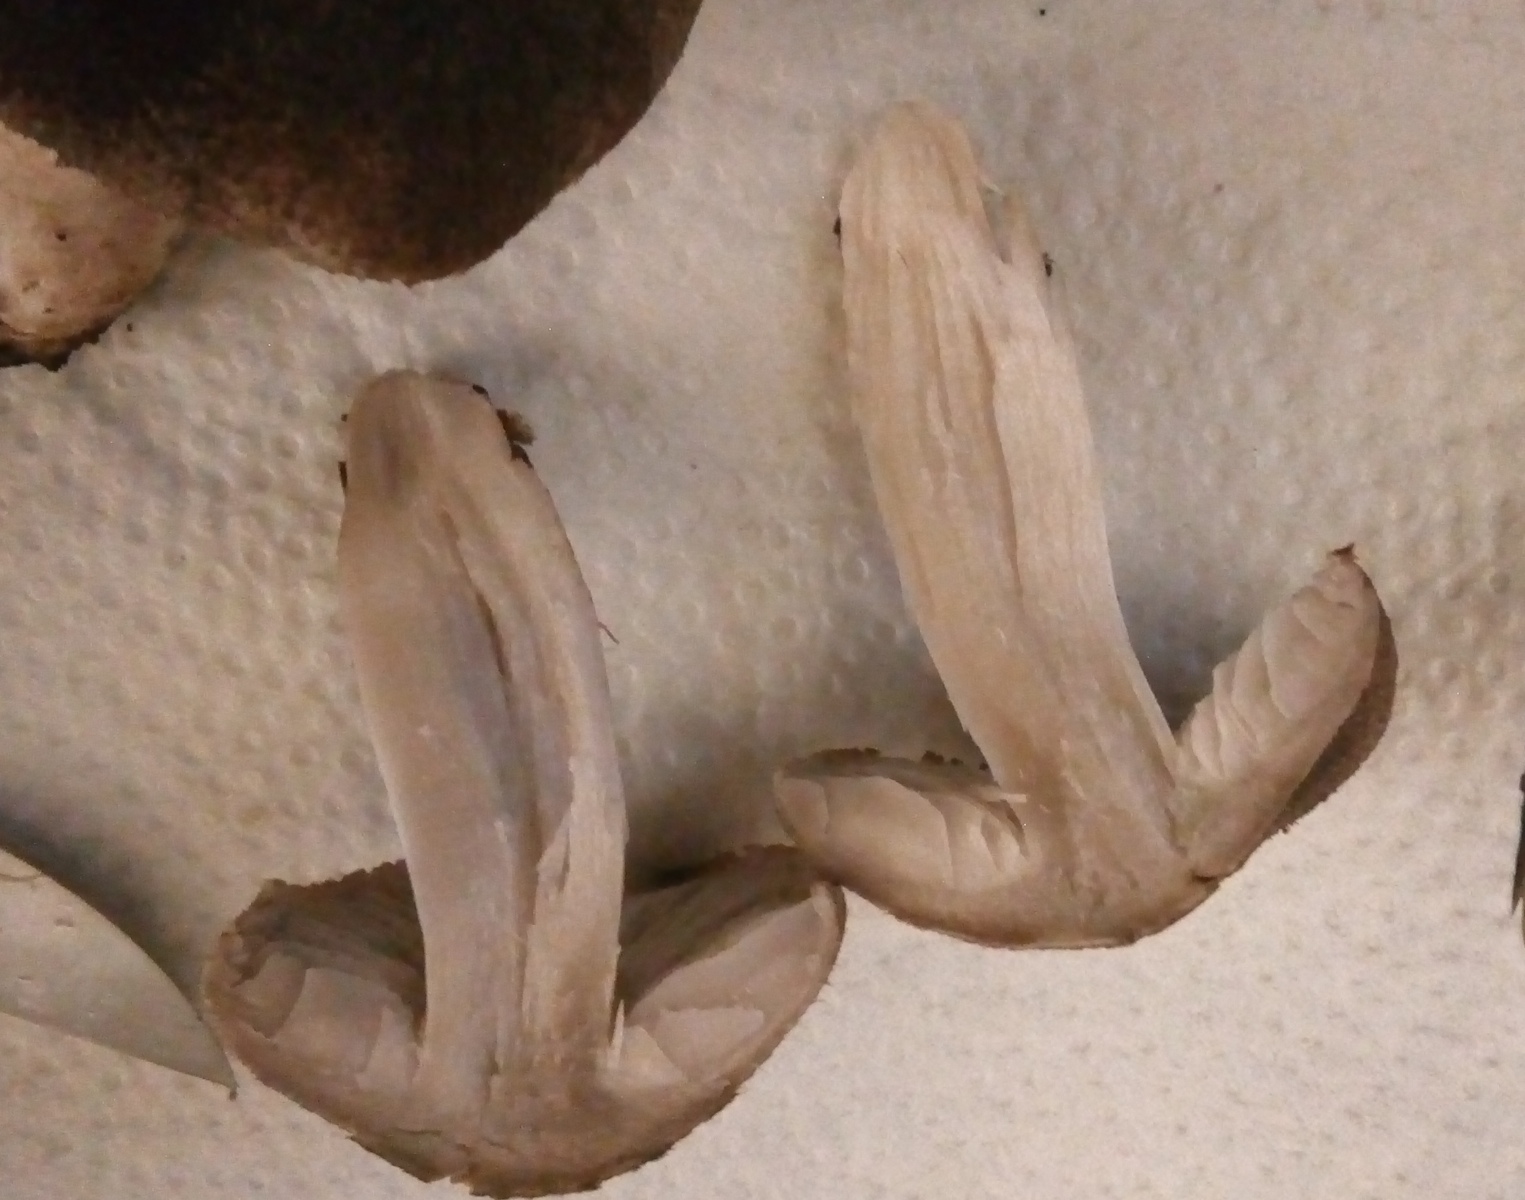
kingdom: Fungi
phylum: Basidiomycota
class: Agaricomycetes
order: Agaricales
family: Tricholomataceae
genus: Tricholoma
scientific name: Tricholoma terreum
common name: jordfarvet ridderhat
